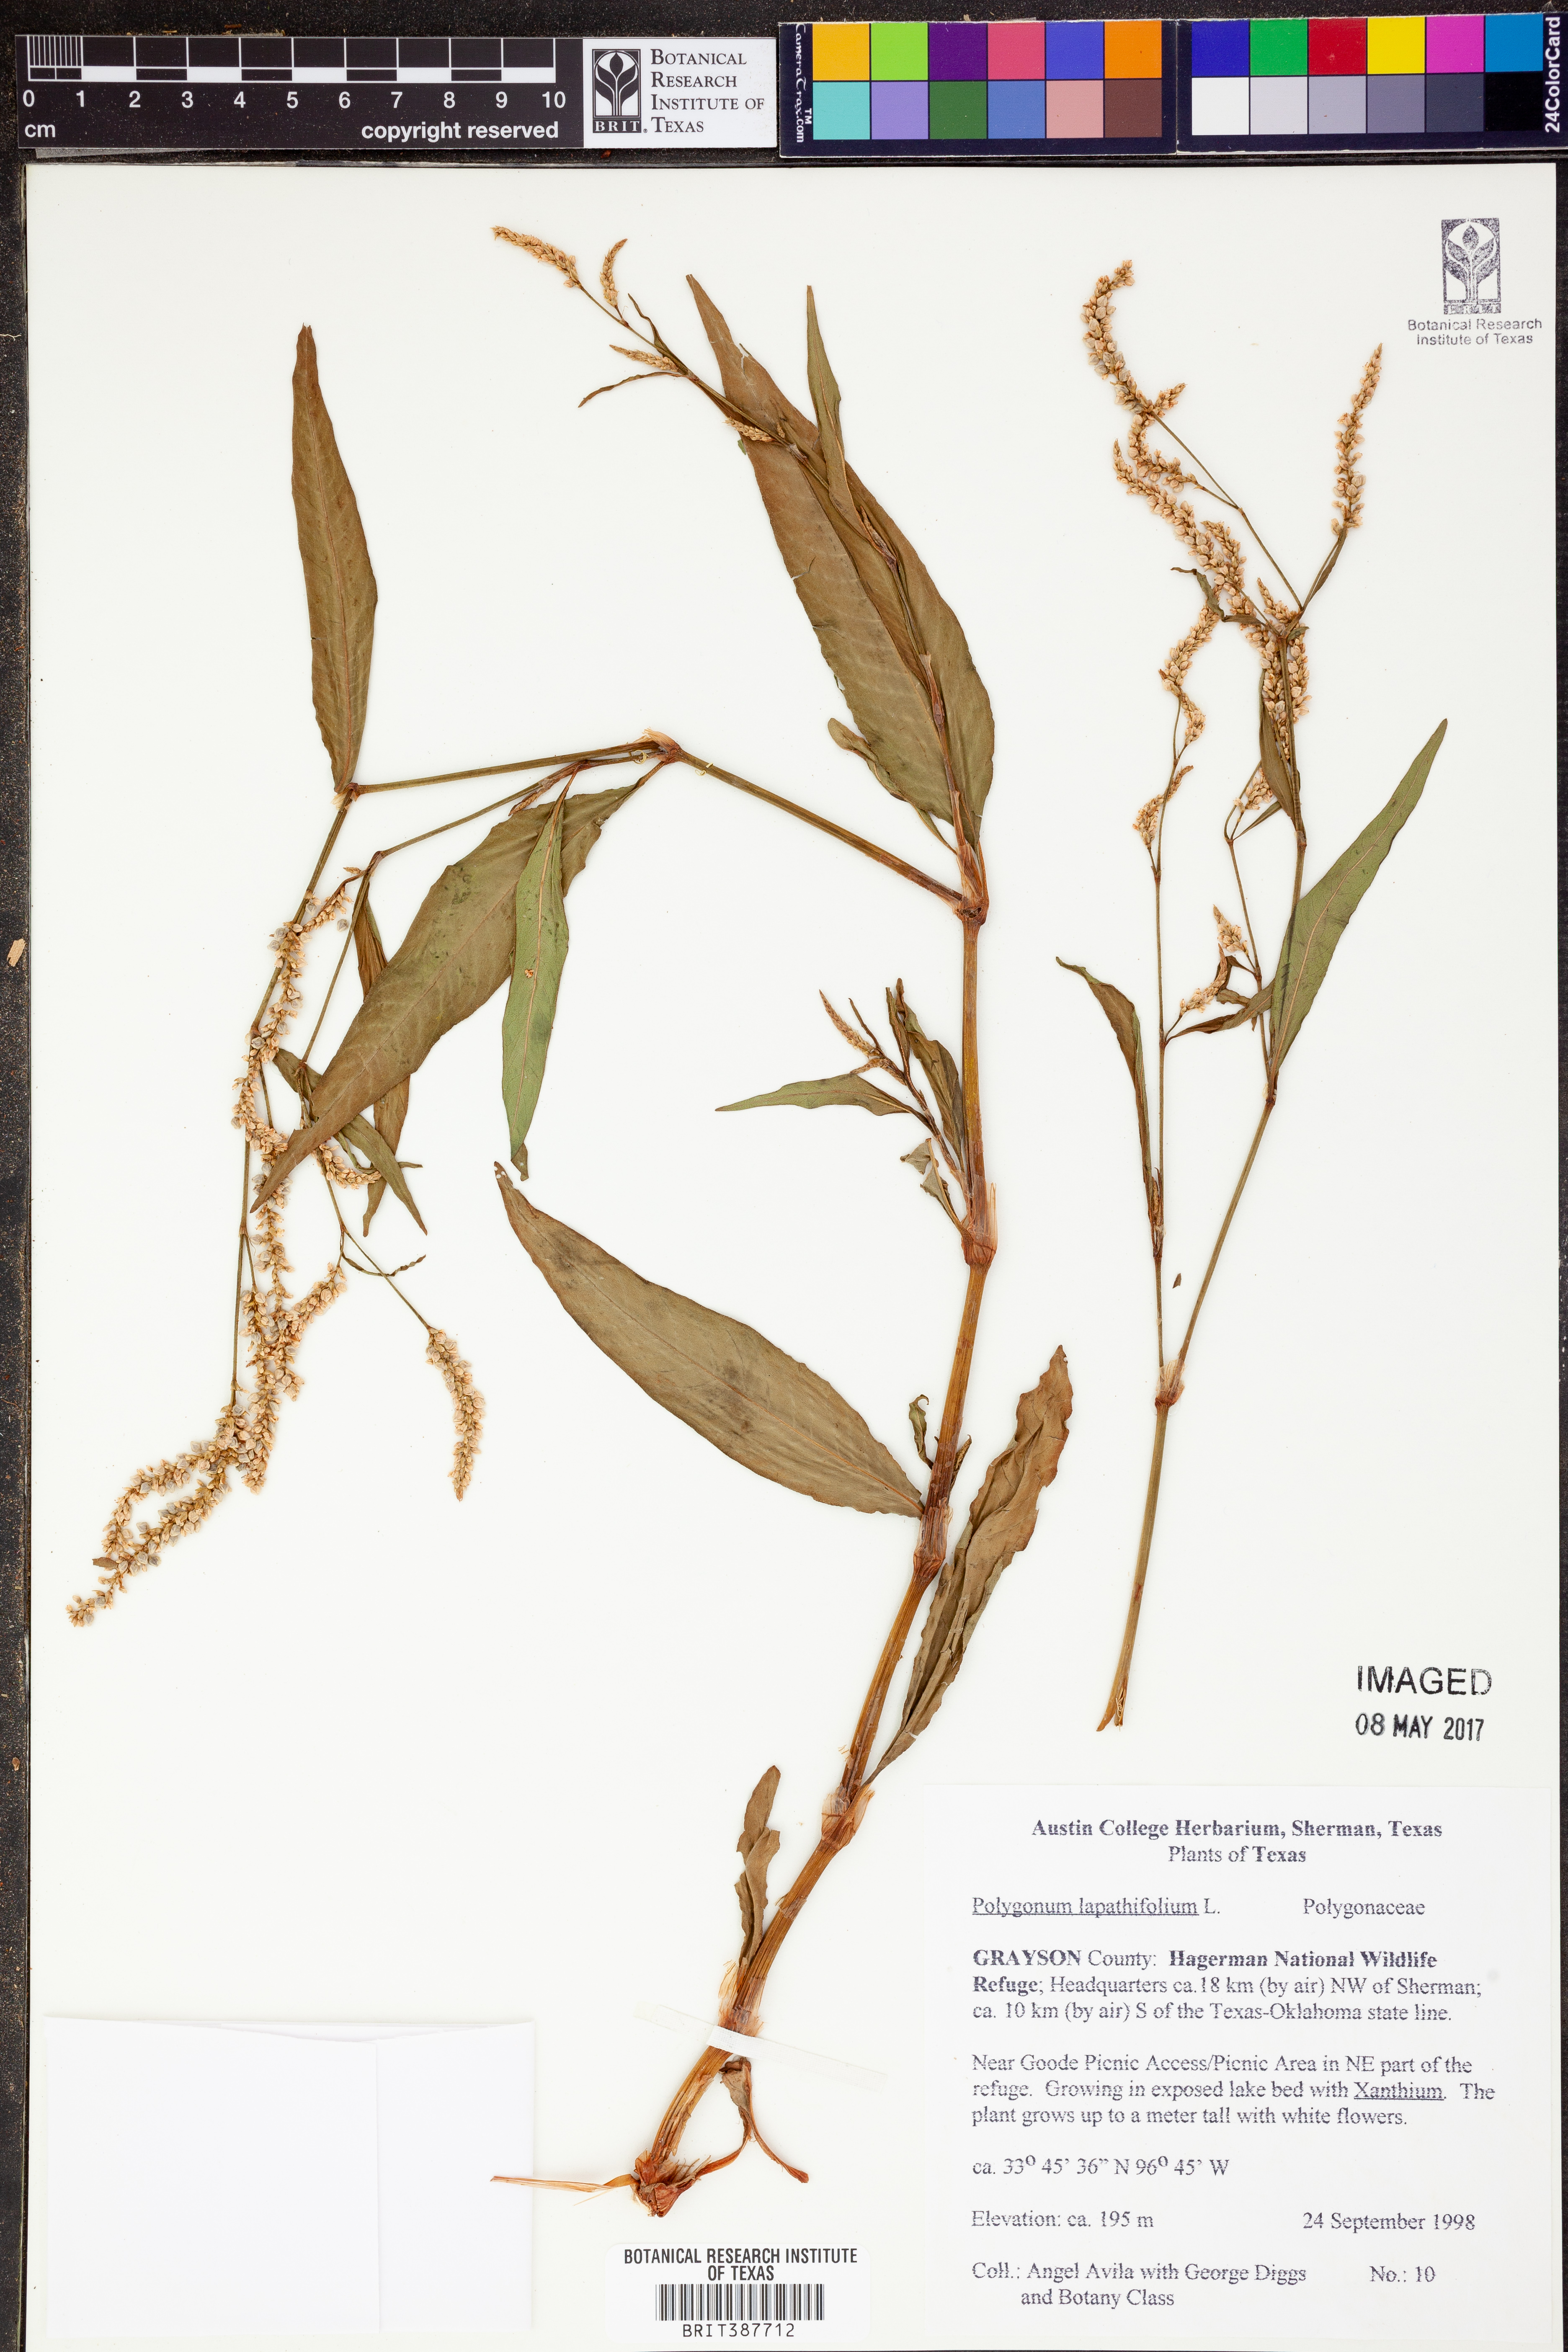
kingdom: Plantae
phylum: Tracheophyta
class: Magnoliopsida
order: Caryophyllales
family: Polygonaceae
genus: Persicaria
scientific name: Persicaria lapathifolia
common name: Curlytop knotweed
